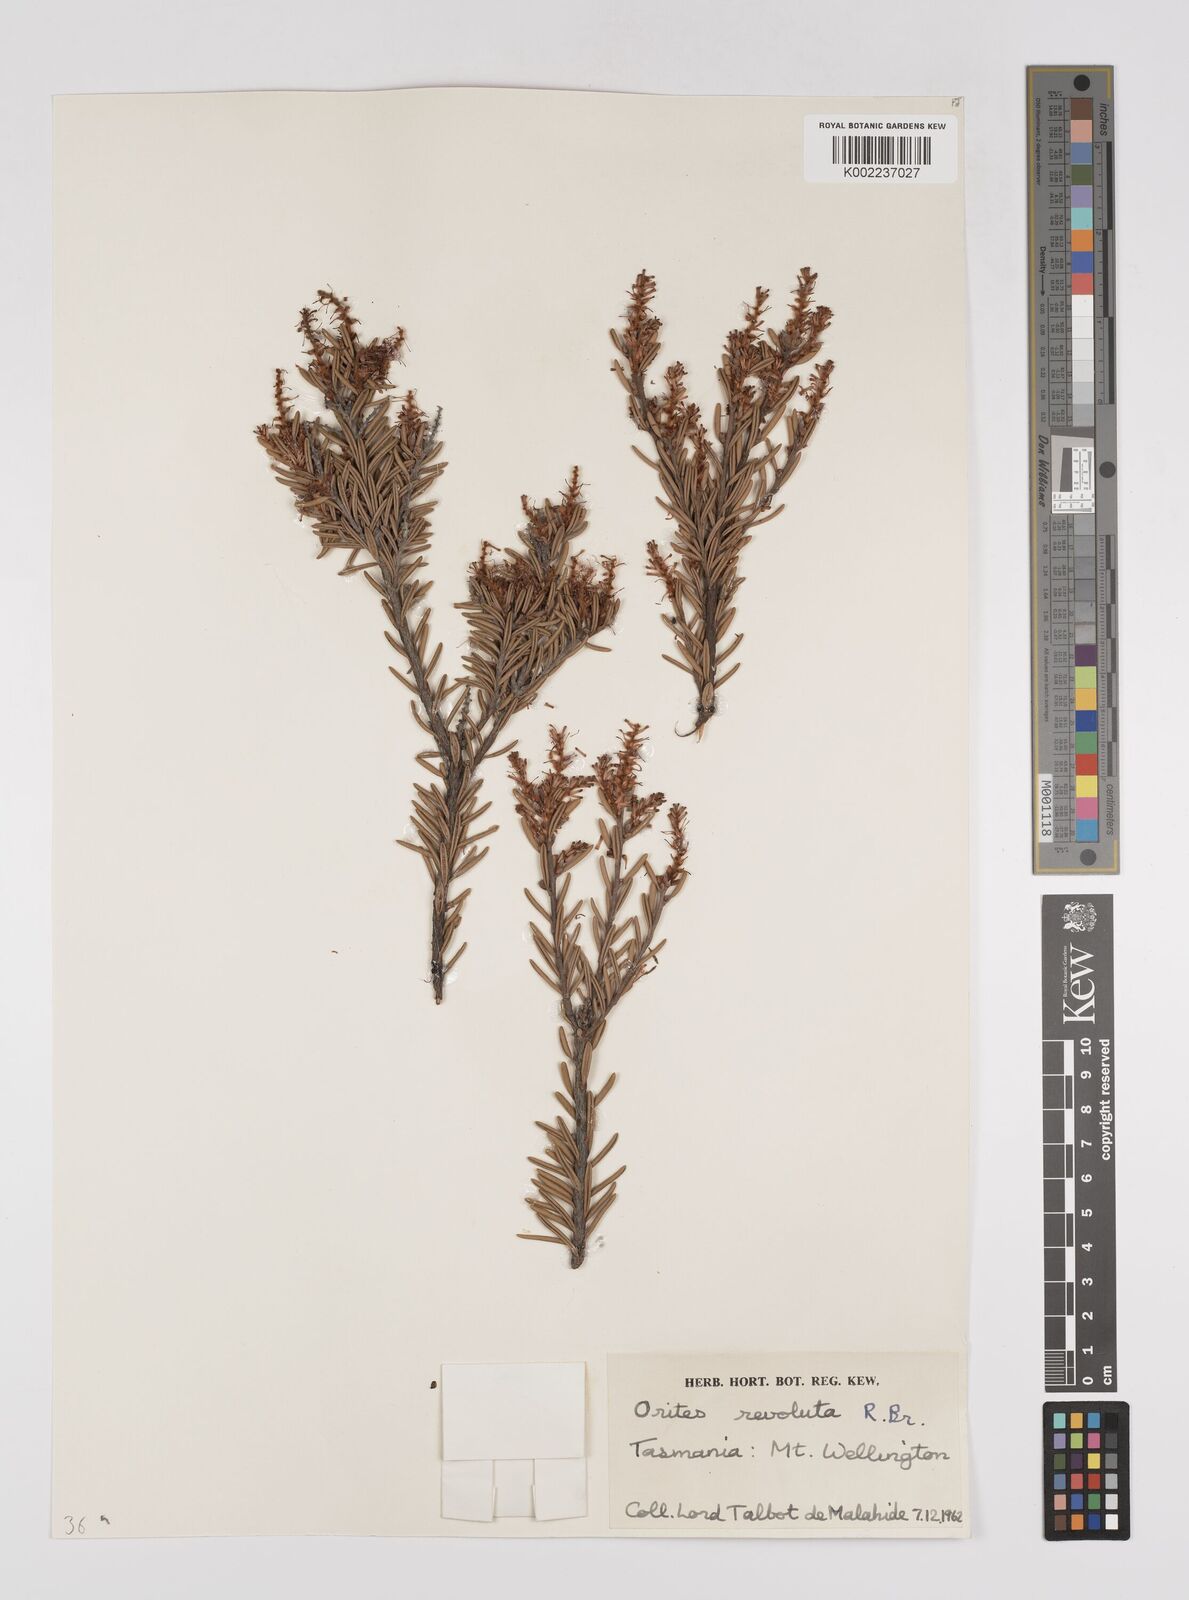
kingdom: Plantae
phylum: Tracheophyta
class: Magnoliopsida
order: Proteales
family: Proteaceae
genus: Orites
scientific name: Orites revolutus
